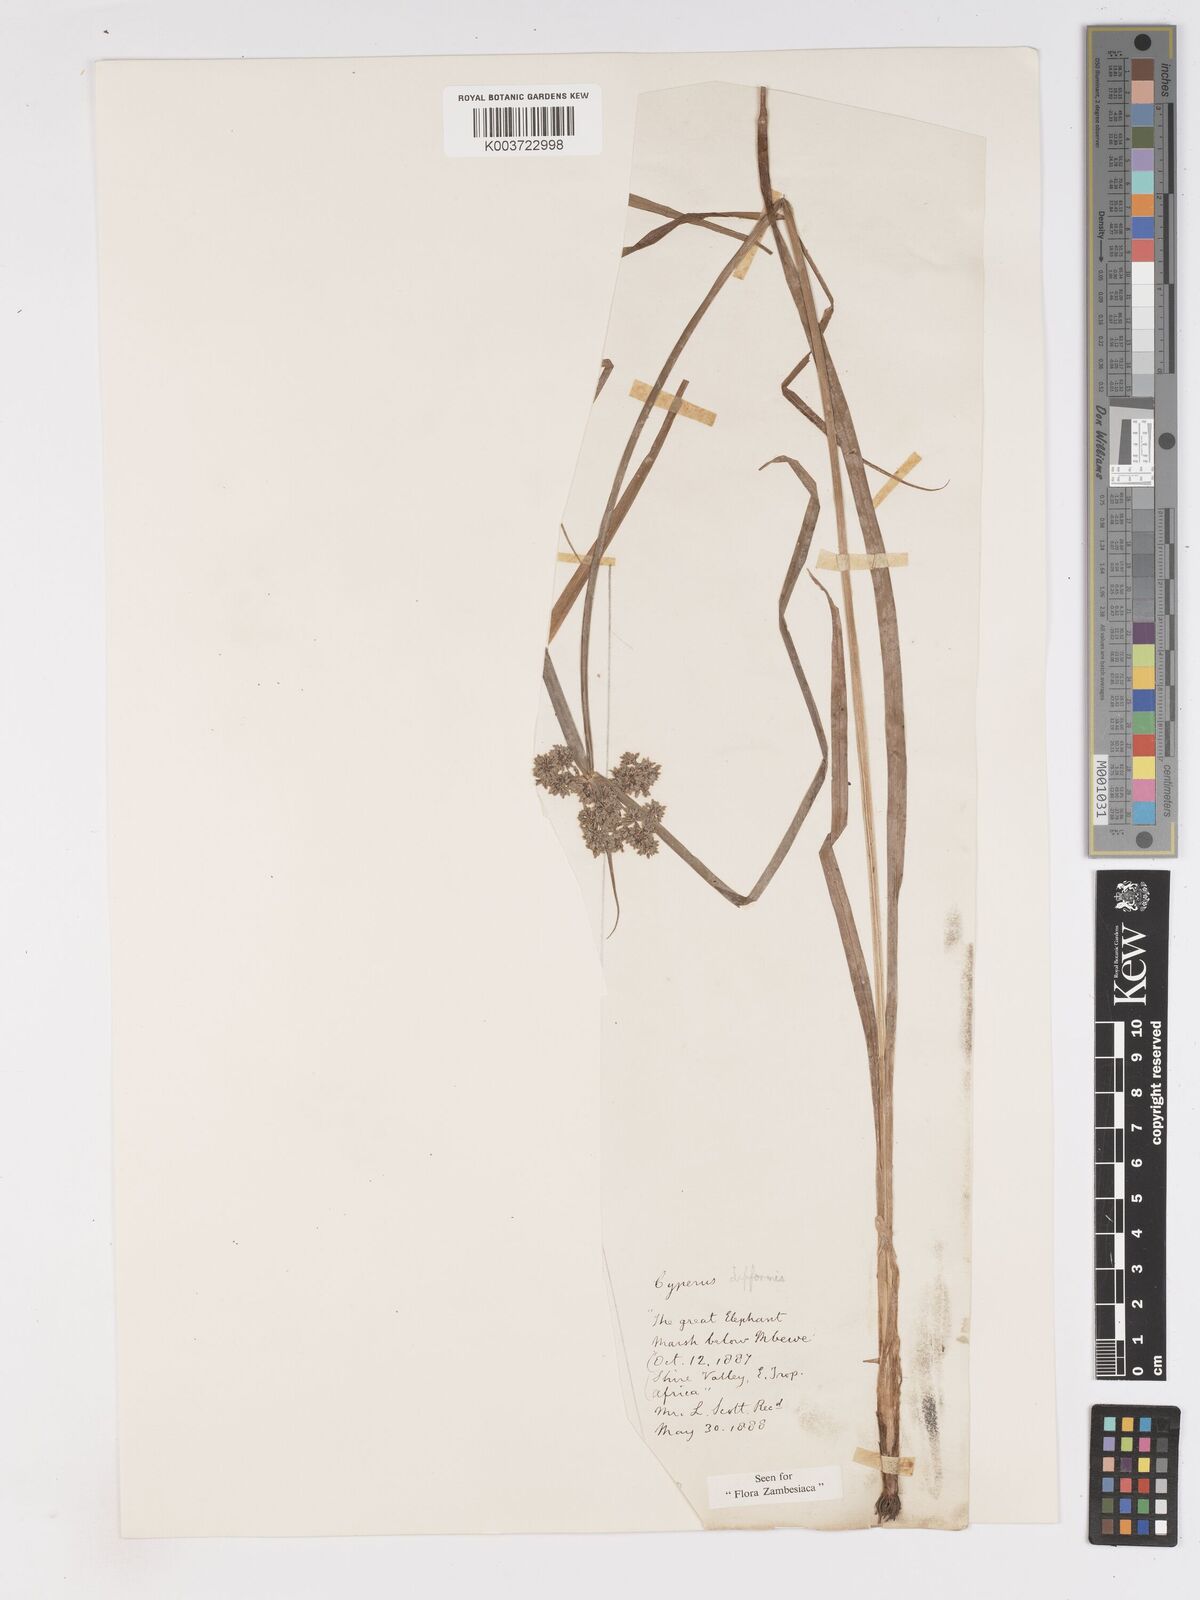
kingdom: Plantae
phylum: Tracheophyta
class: Liliopsida
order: Poales
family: Cyperaceae
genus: Cyperus
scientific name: Cyperus difformis
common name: Variable flatsedge
